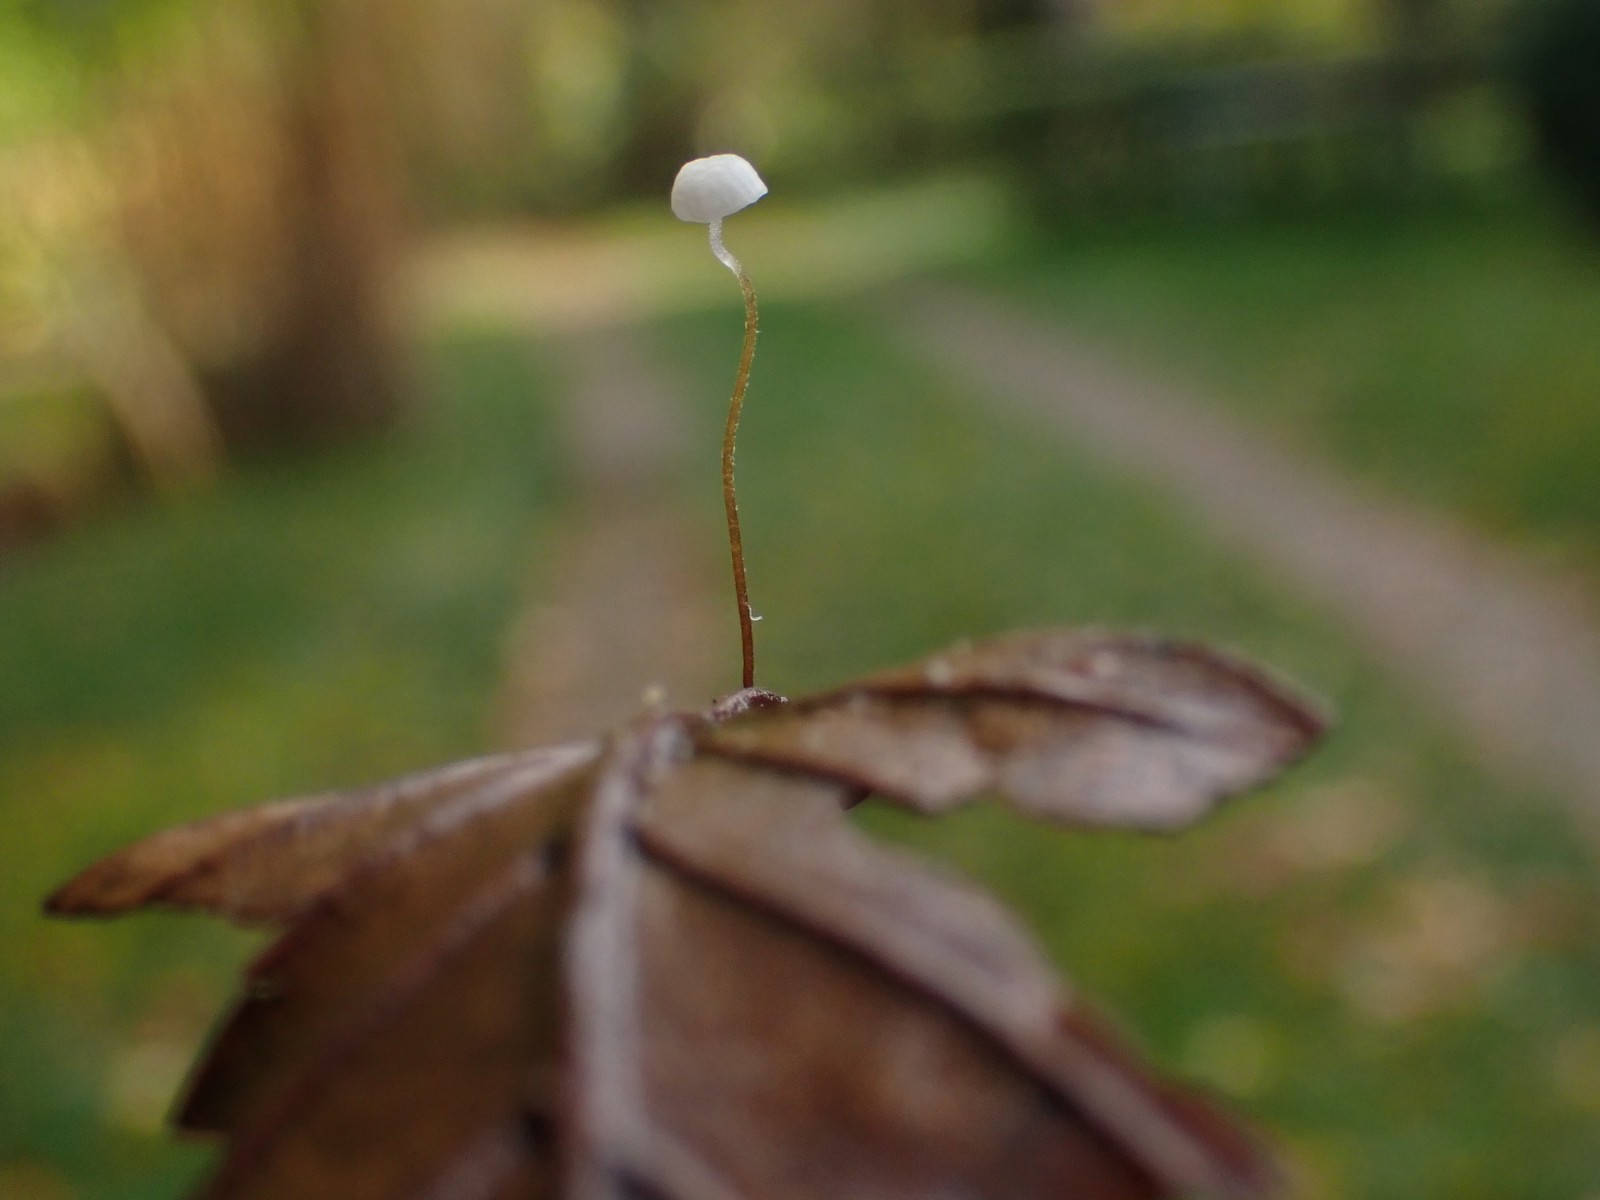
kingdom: Fungi
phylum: Basidiomycota
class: Agaricomycetes
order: Agaricales
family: Physalacriaceae
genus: Rhizomarasmius
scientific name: Rhizomarasmius setosus
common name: bøgeblads-bruskhat
